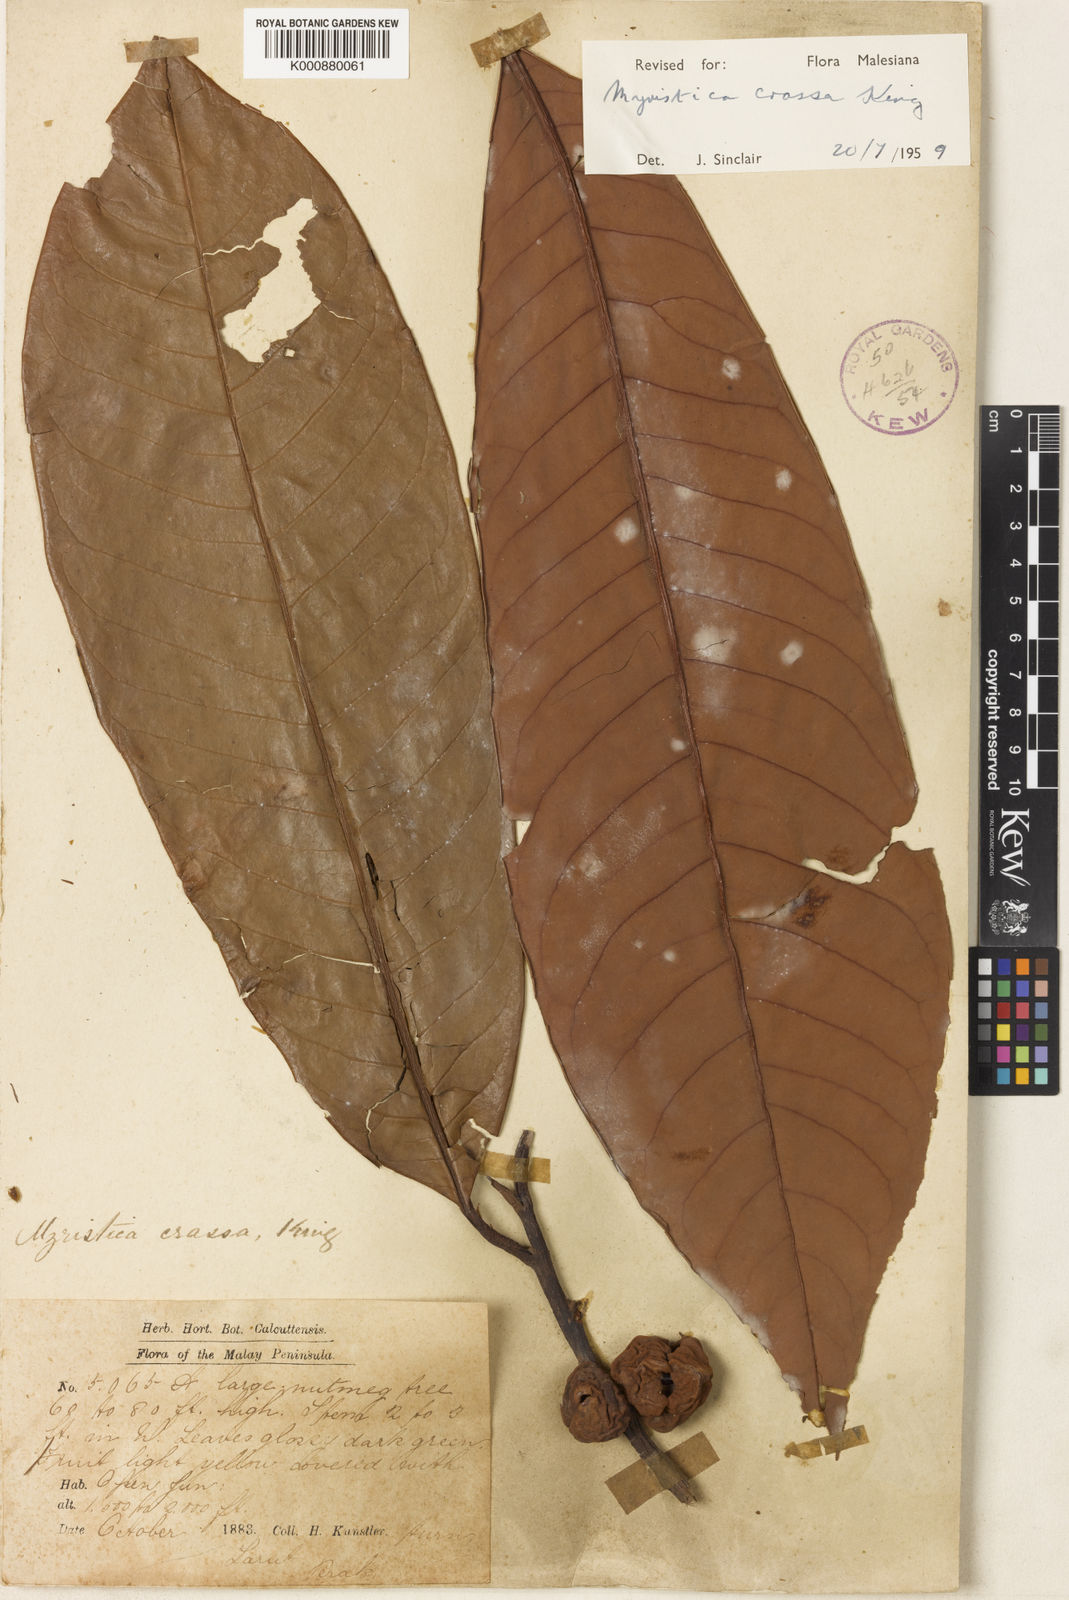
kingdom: Plantae
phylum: Tracheophyta
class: Magnoliopsida
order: Magnoliales
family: Myristicaceae
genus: Myristica
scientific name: Myristica crassa
